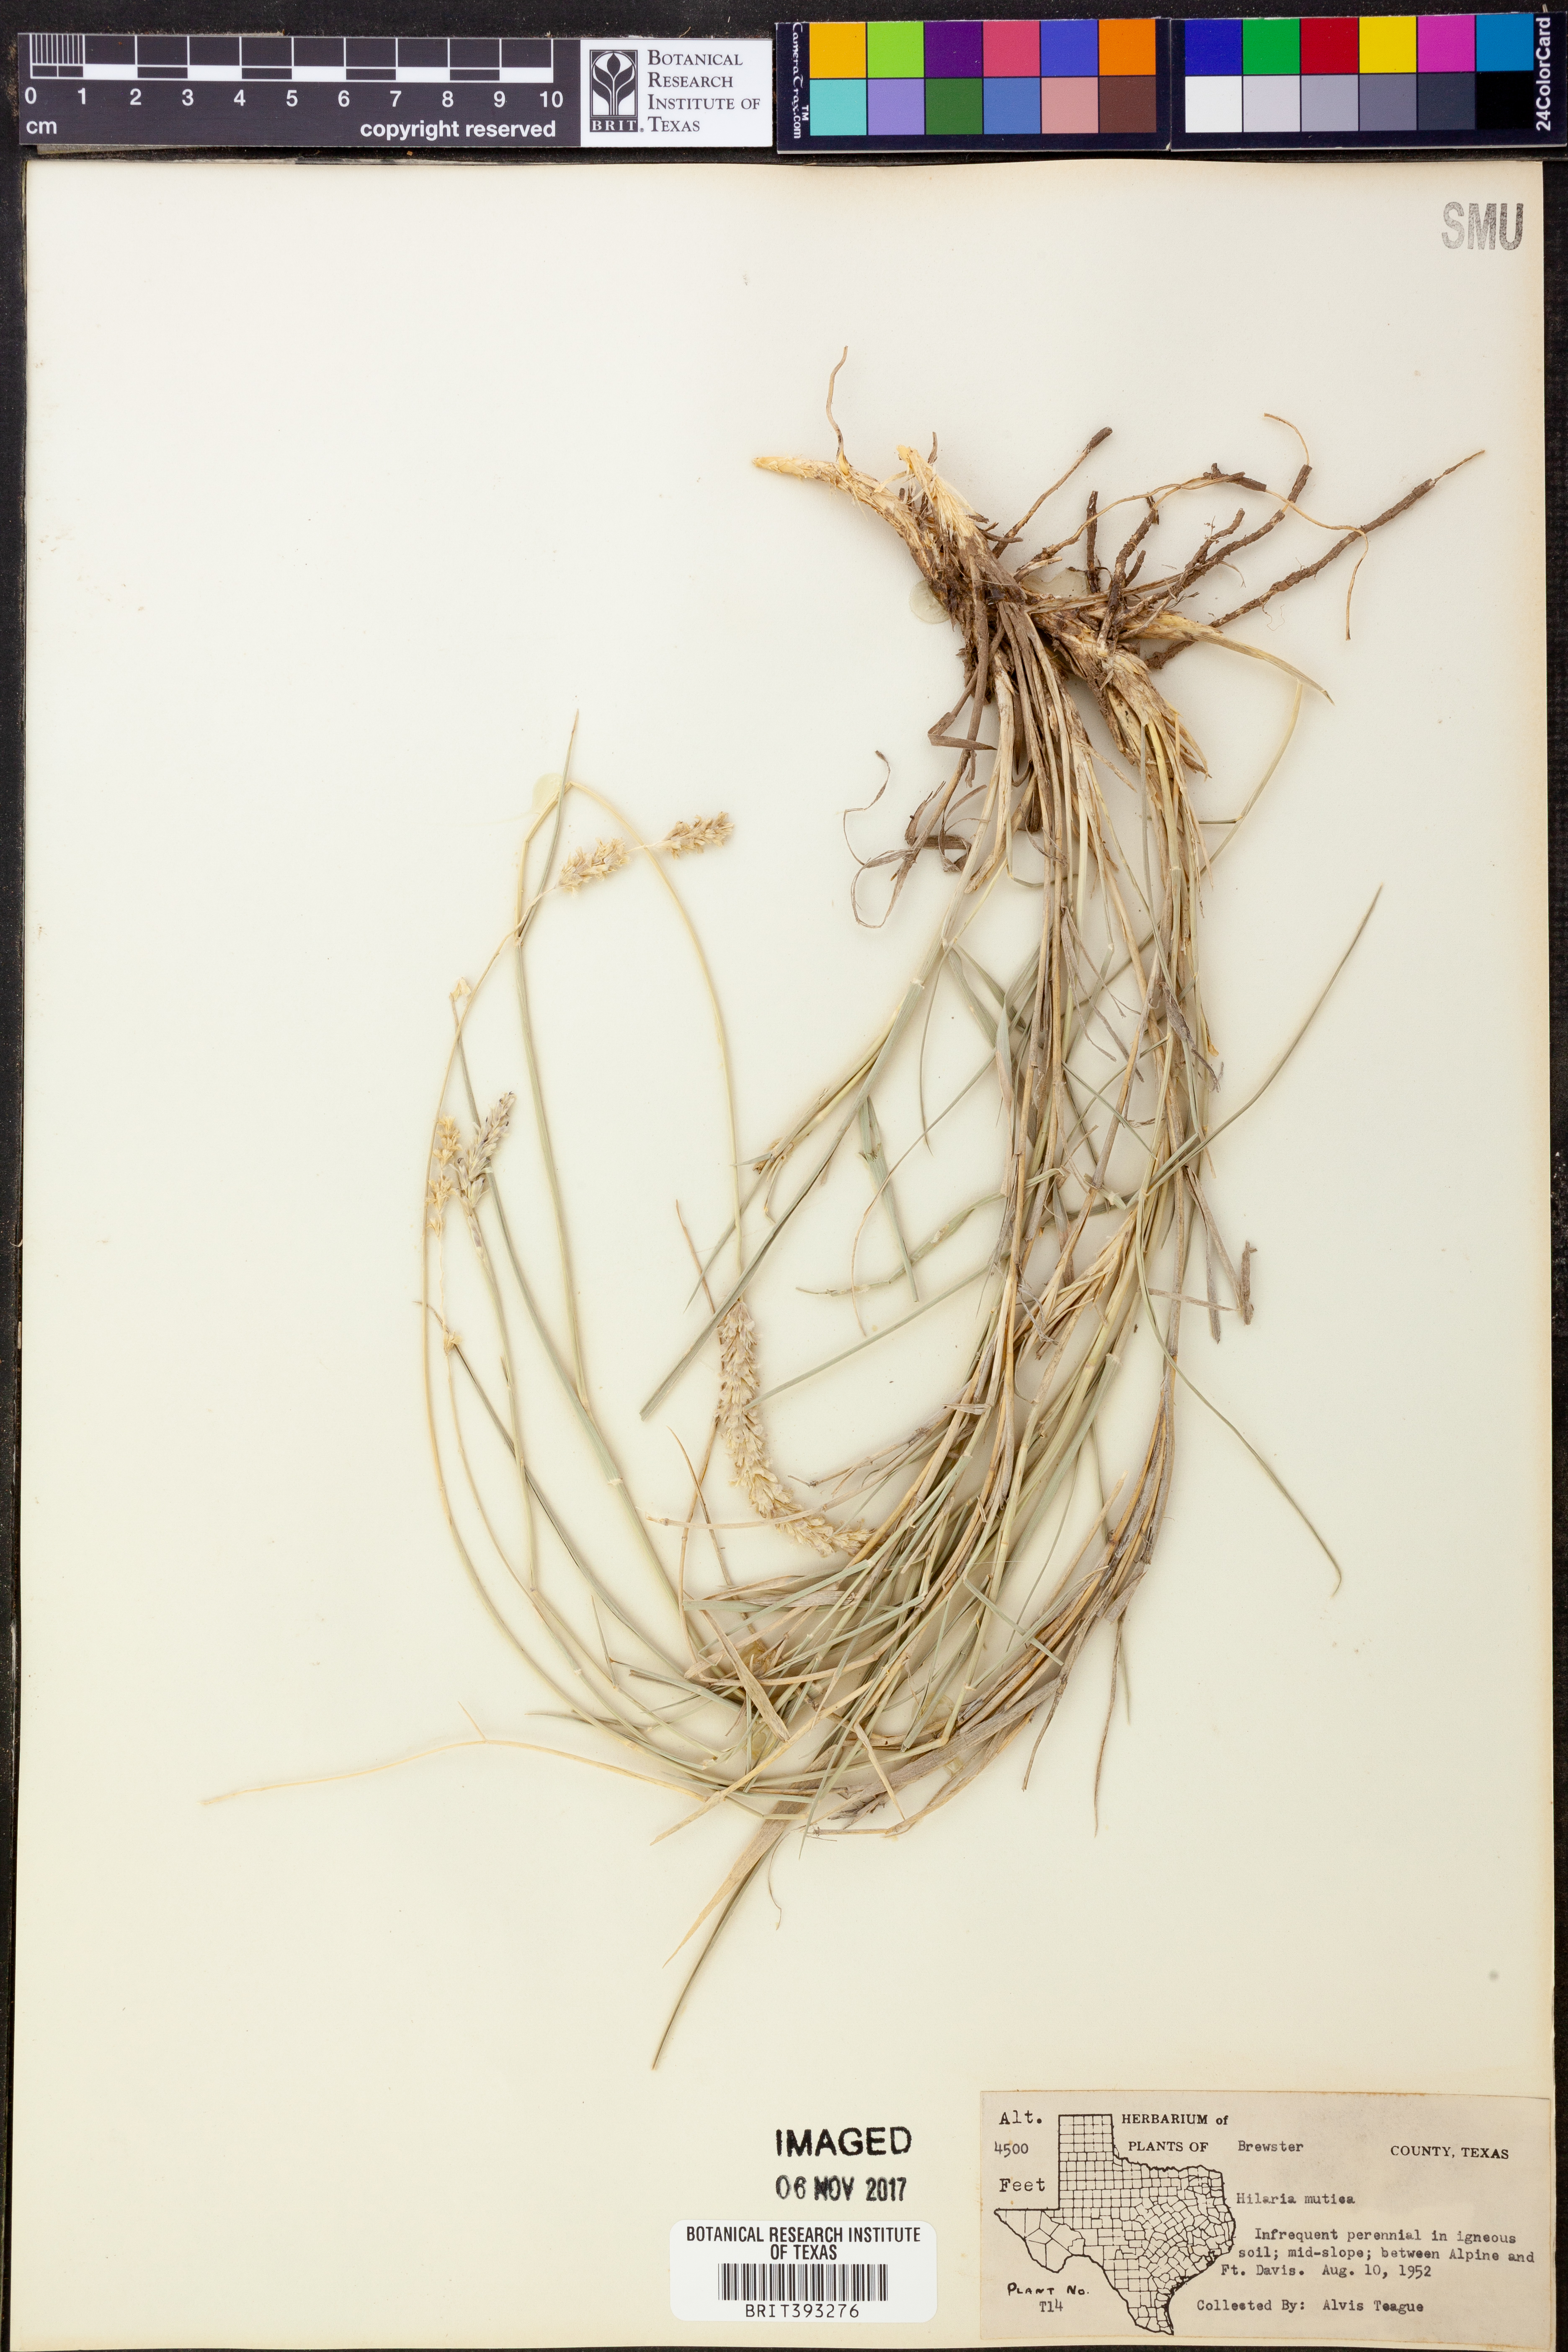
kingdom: Plantae
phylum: Tracheophyta
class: Liliopsida
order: Poales
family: Poaceae
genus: Hilaria
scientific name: Hilaria mutica
